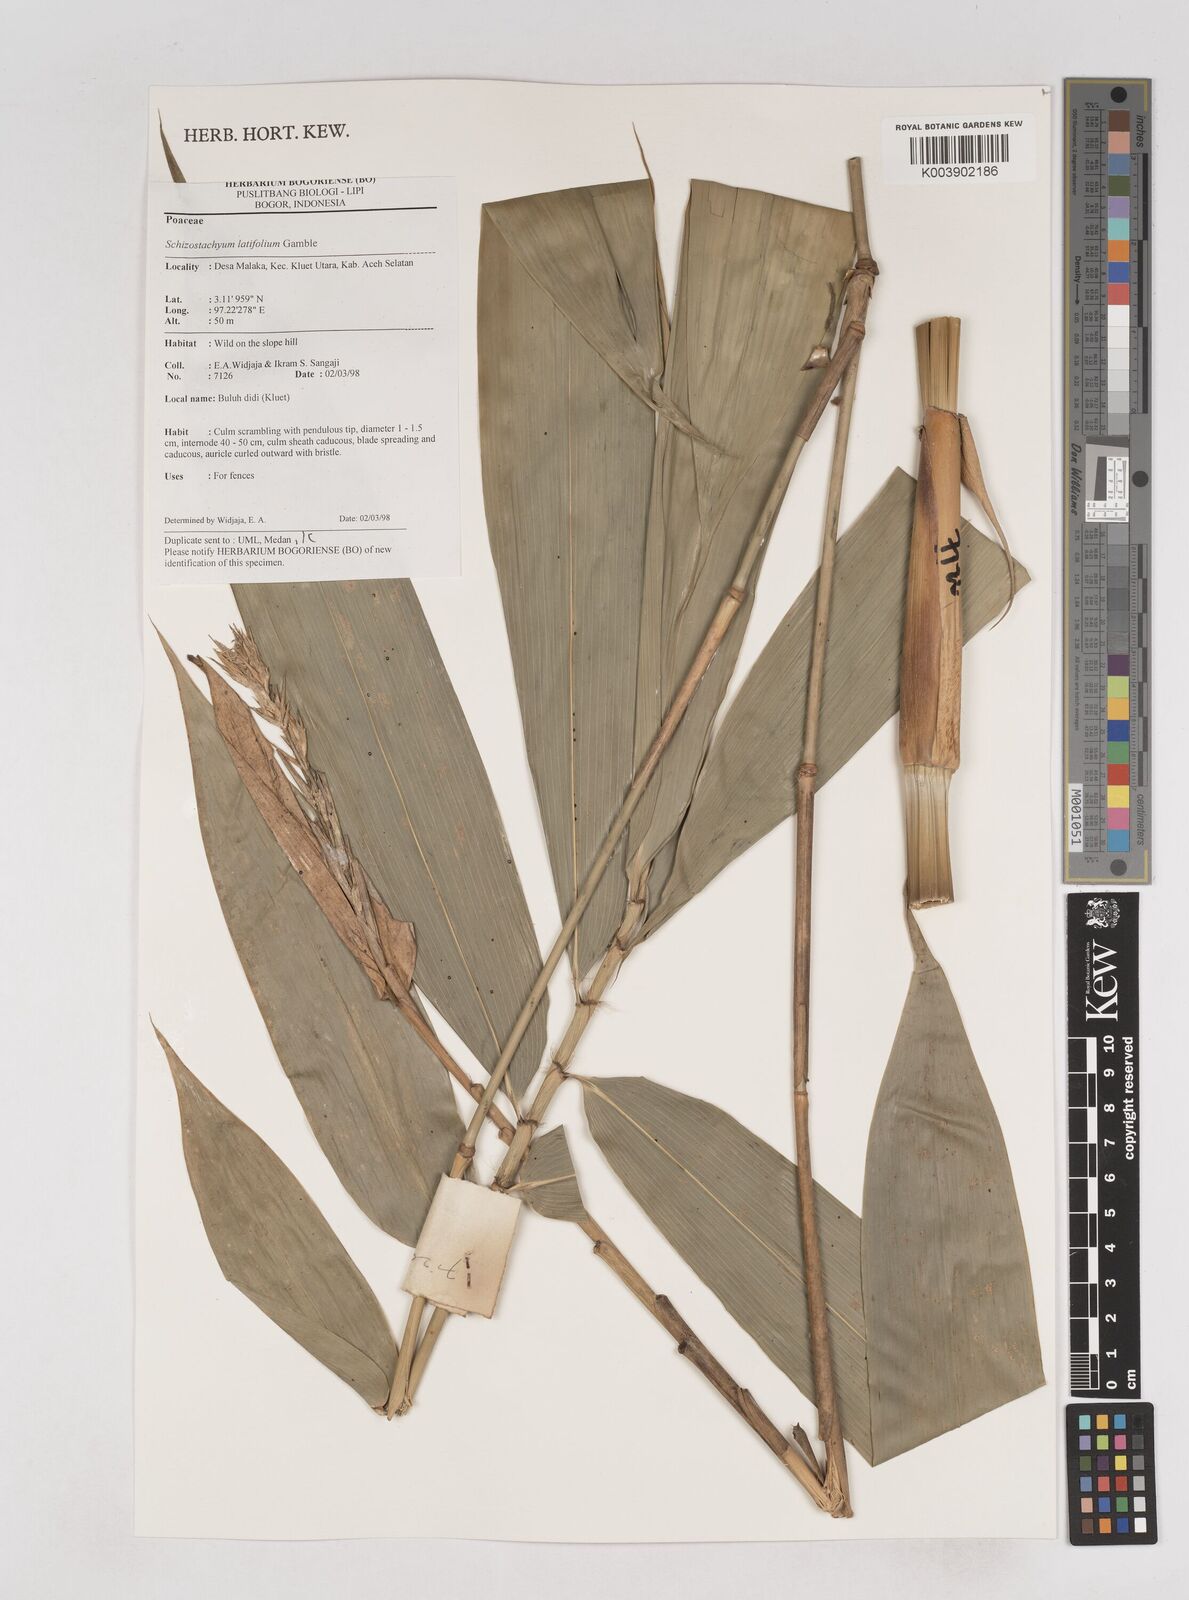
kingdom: Plantae
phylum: Tracheophyta
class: Liliopsida
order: Poales
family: Poaceae
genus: Schizostachyum
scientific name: Schizostachyum latifolium
